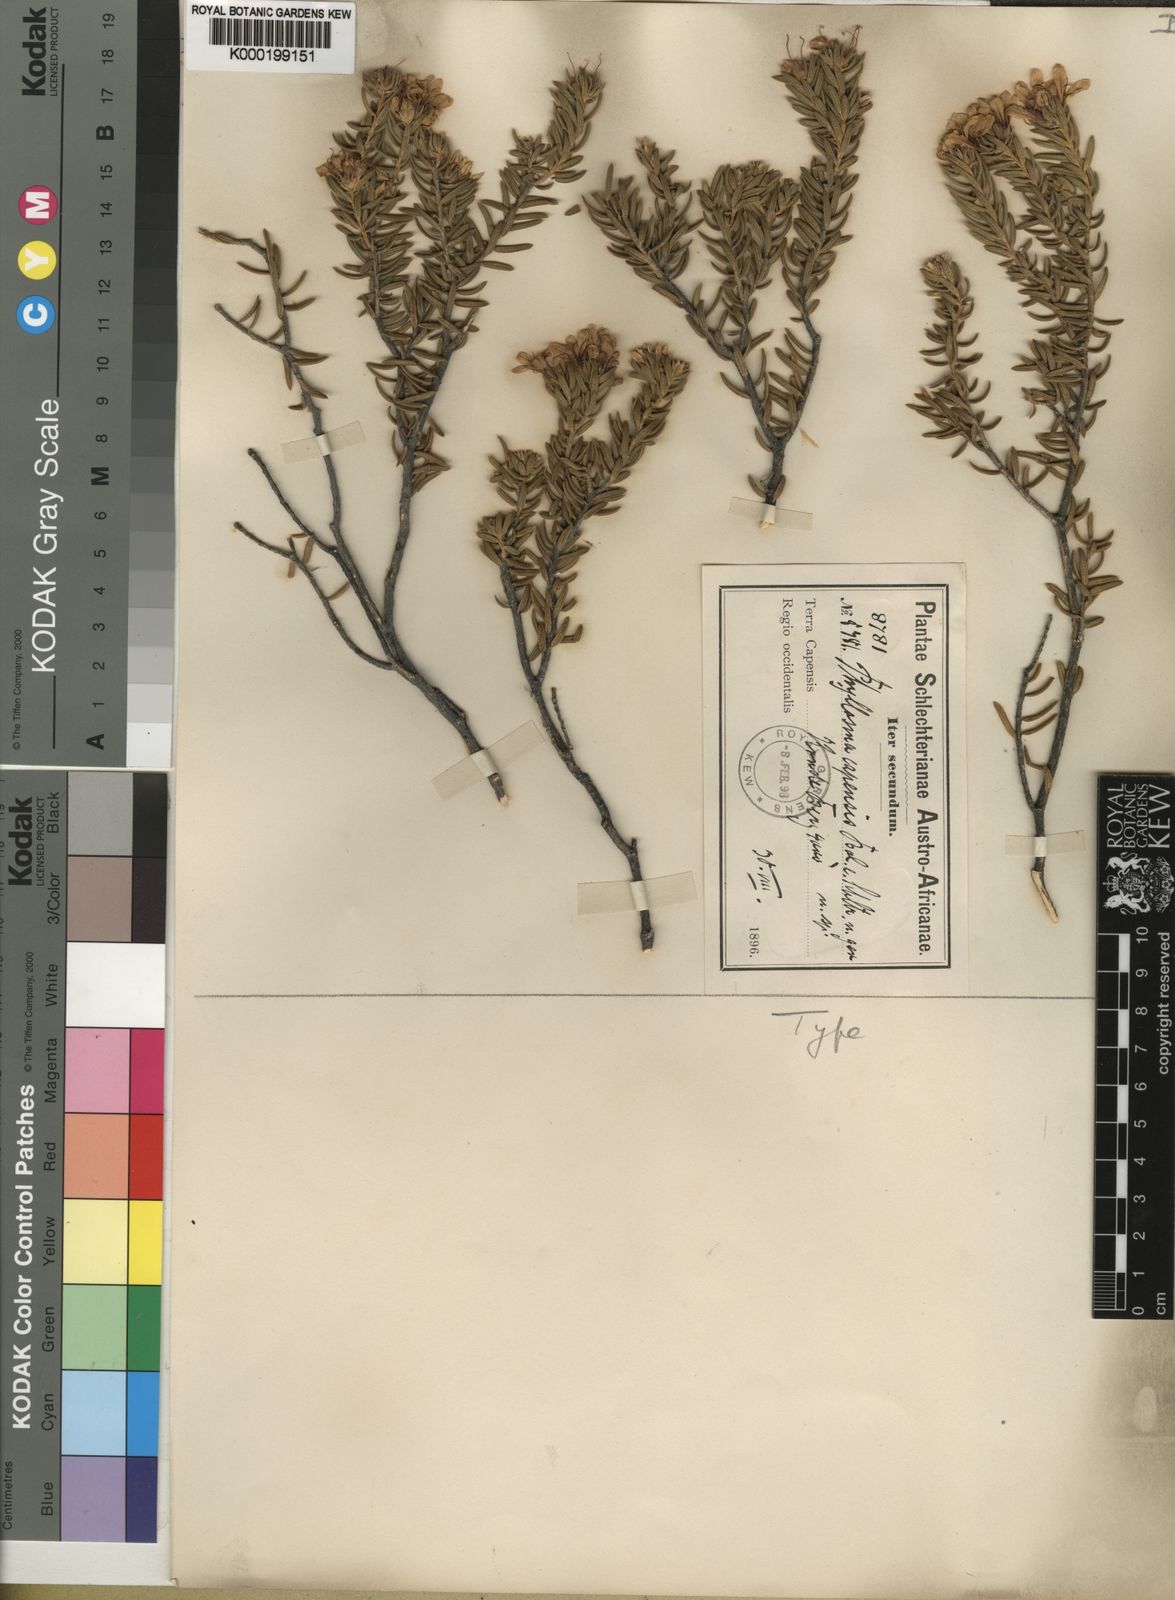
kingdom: Plantae
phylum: Tracheophyta
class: Magnoliopsida
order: Sapindales
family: Rutaceae
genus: Phyllosma
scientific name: Phyllosma
